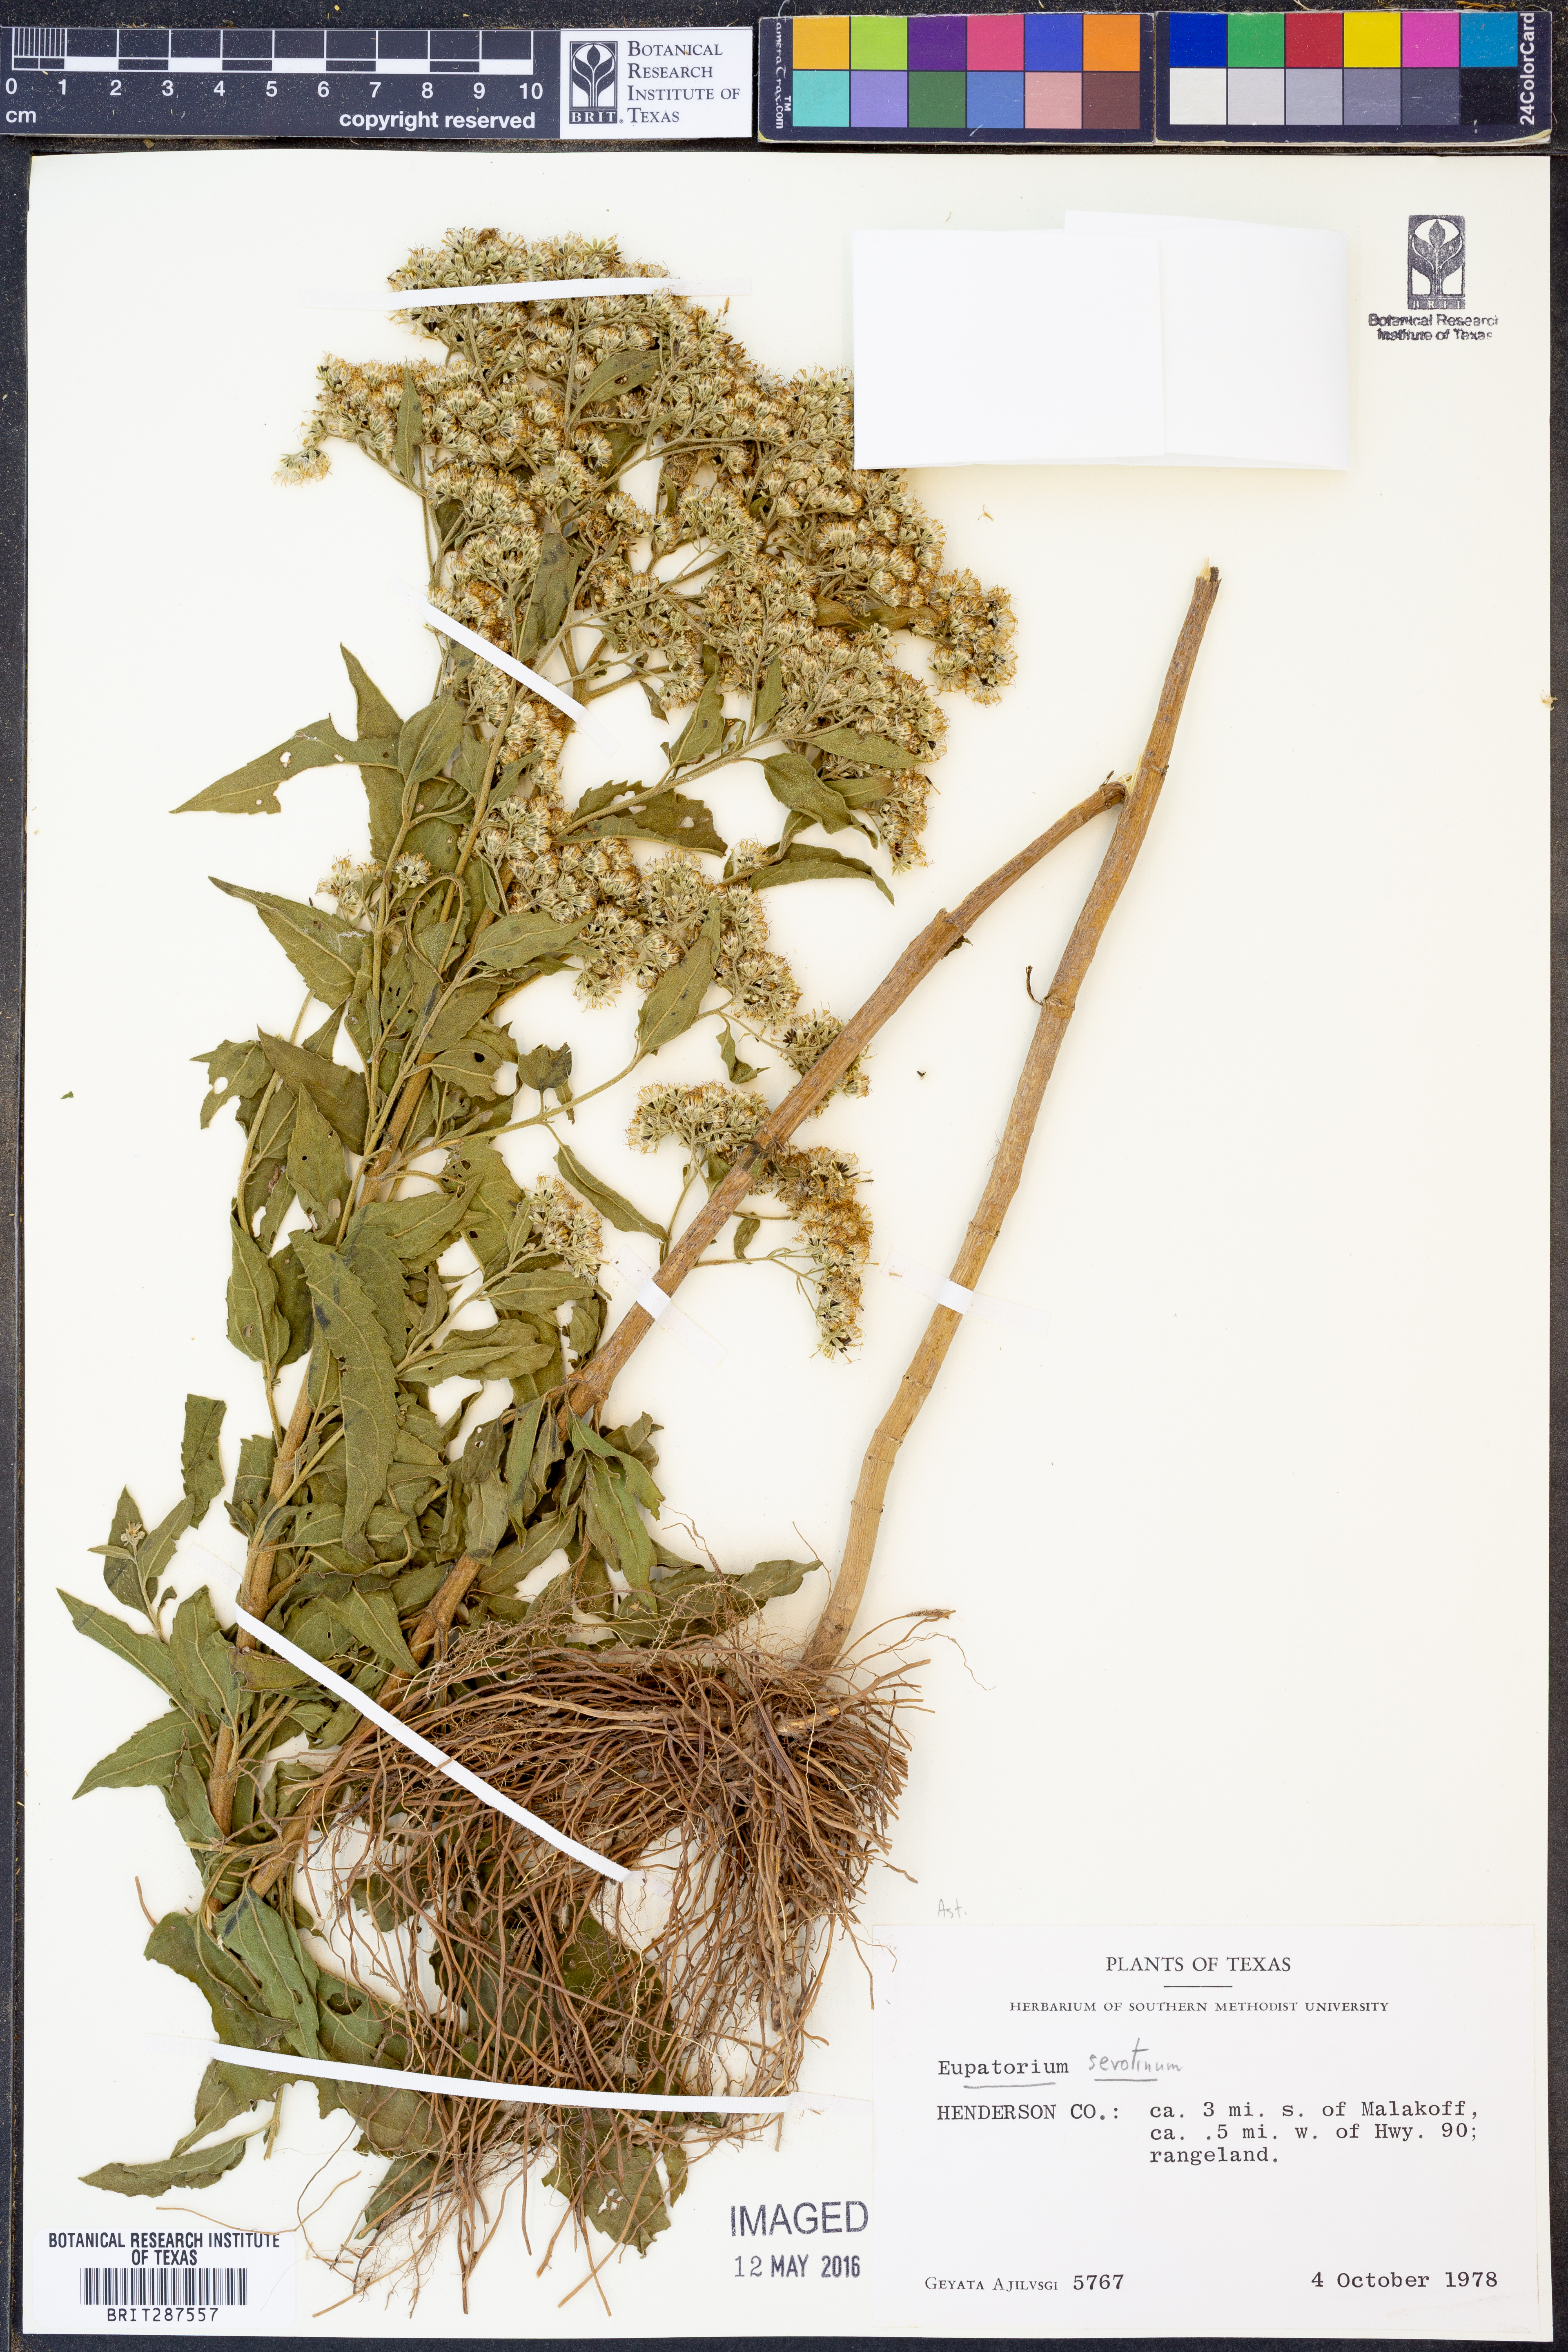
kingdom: Plantae
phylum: Tracheophyta
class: Magnoliopsida
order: Asterales
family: Asteraceae
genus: Eupatorium
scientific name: Eupatorium serotinum
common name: Late boneset
